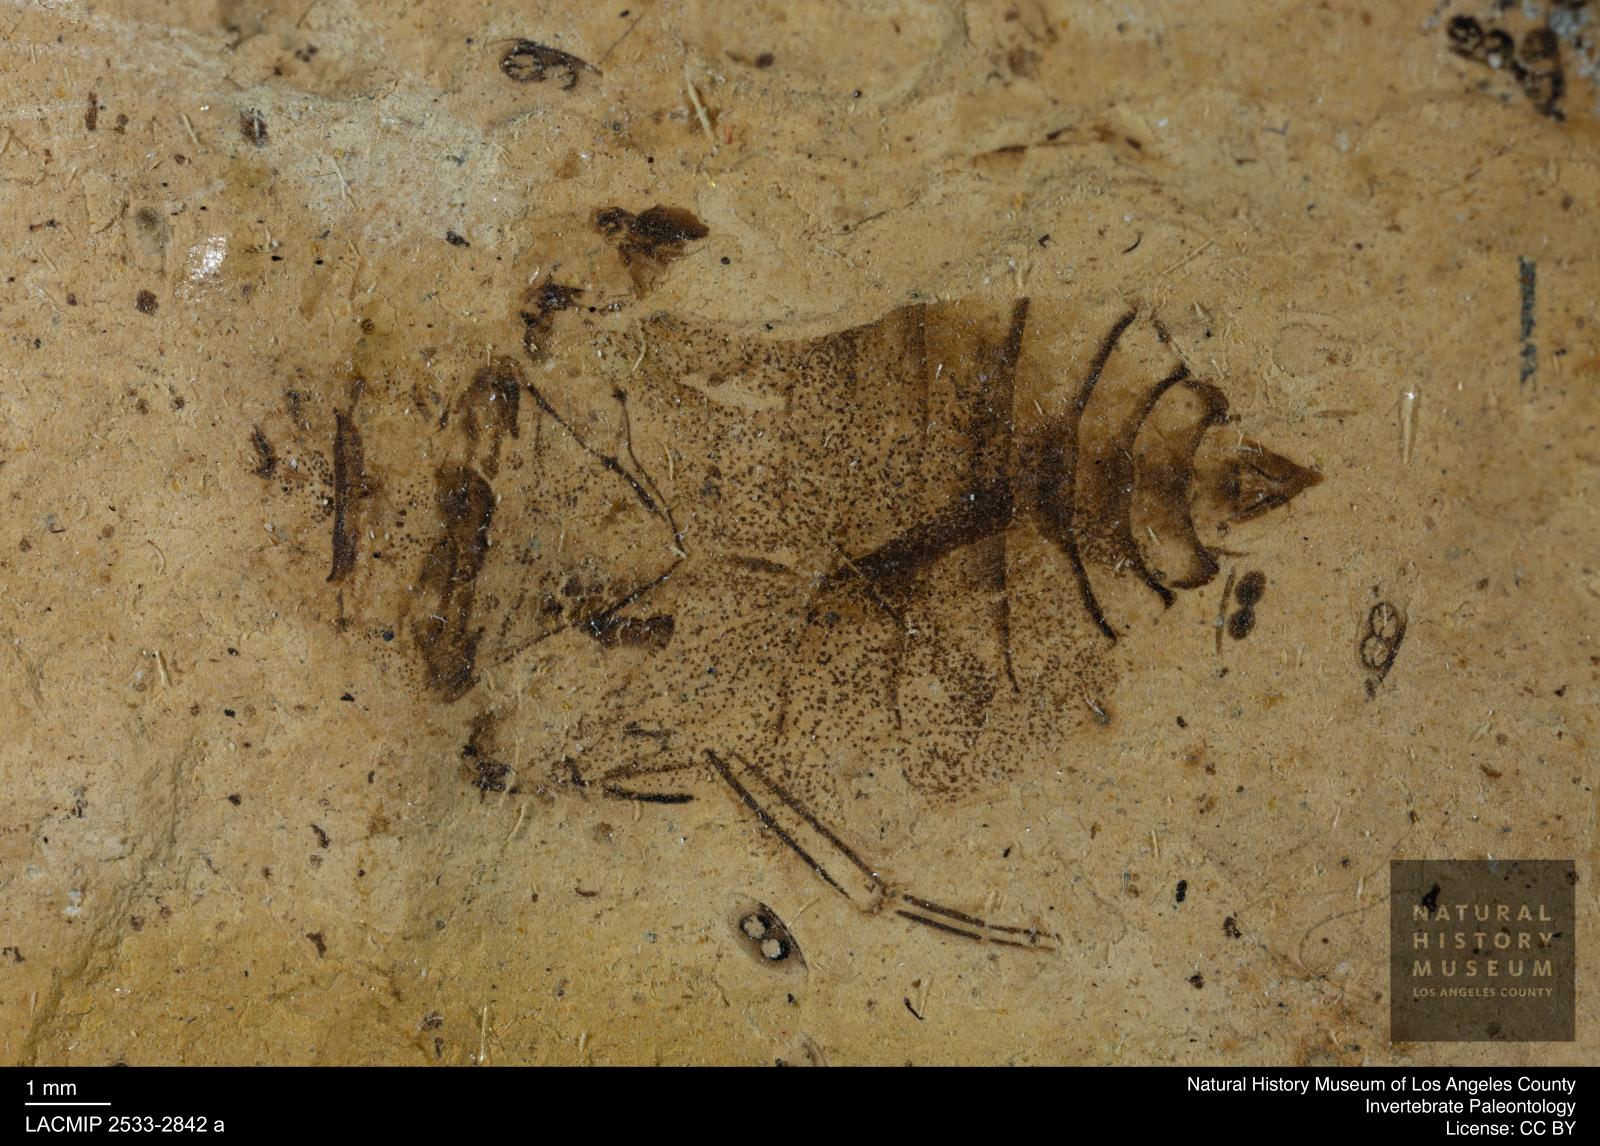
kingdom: Animalia
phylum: Arthropoda
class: Insecta
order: Hemiptera
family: Naucoridae
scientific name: Naucoridae
